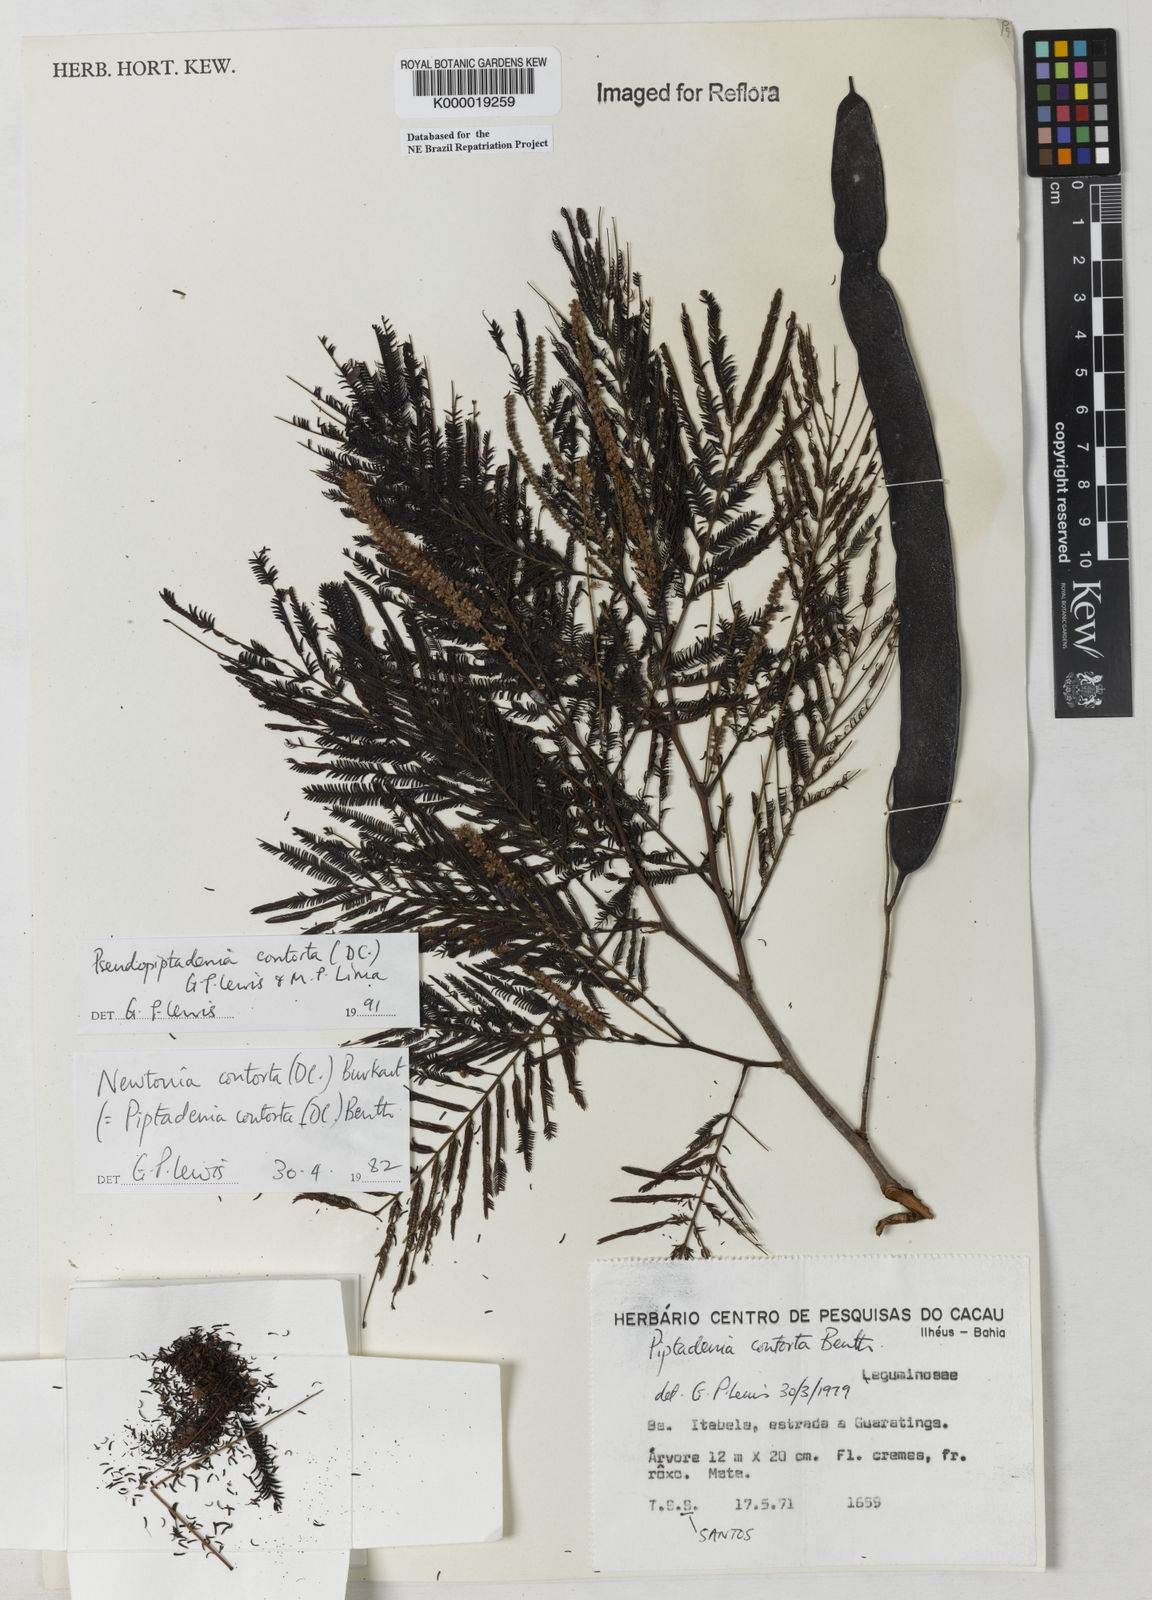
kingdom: Plantae
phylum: Tracheophyta
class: Magnoliopsida
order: Fabales
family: Fabaceae
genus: Pseudopiptadenia
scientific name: Pseudopiptadenia contorta
